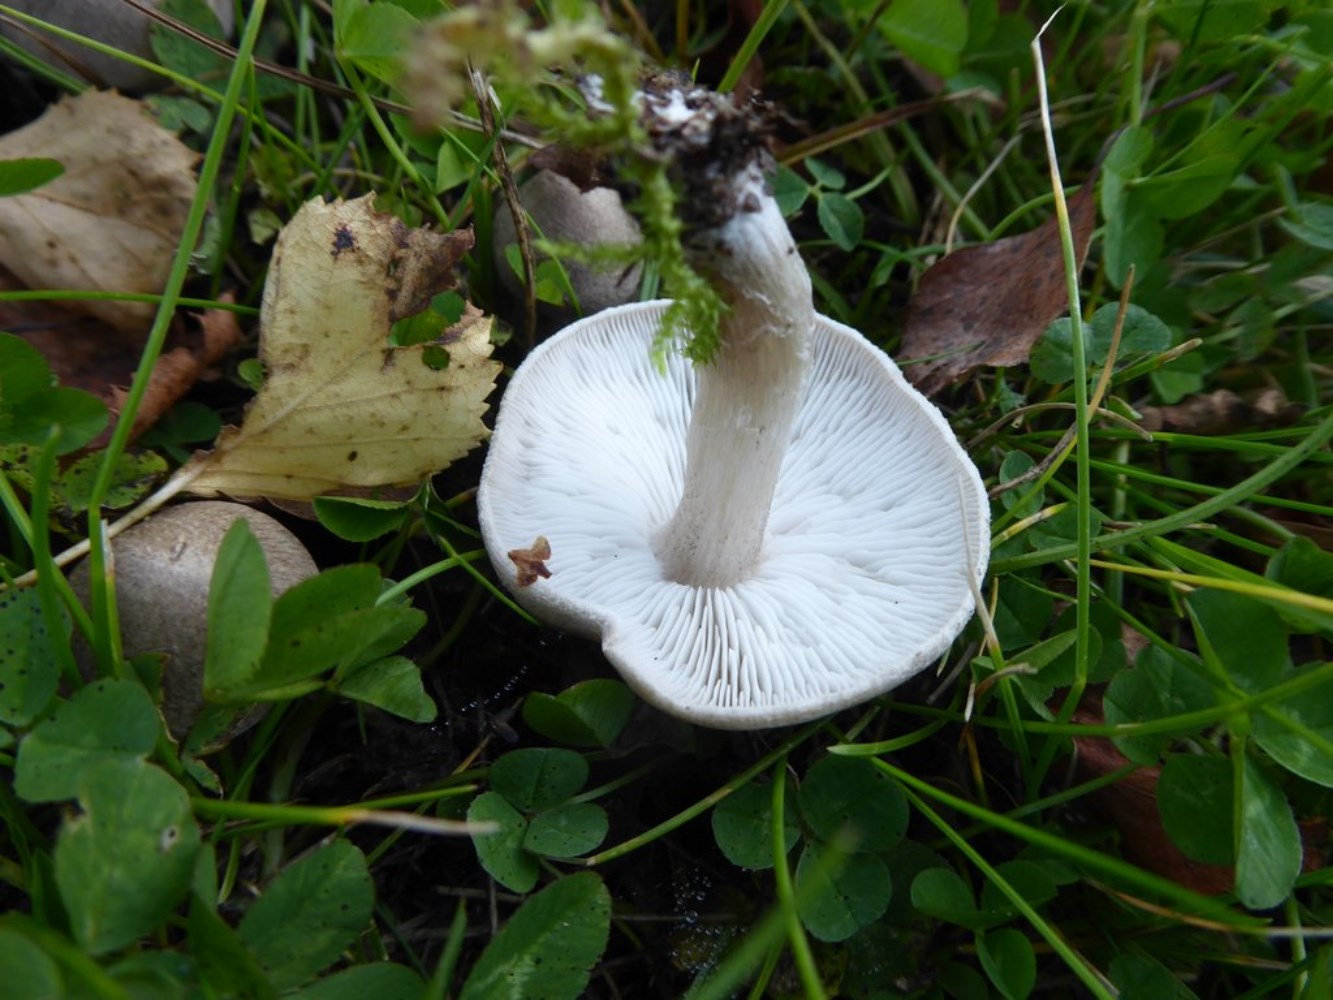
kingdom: Fungi
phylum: Basidiomycota
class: Agaricomycetes
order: Agaricales
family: Tricholomataceae
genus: Tricholoma
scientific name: Tricholoma scalpturatum
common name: gulplettet ridderhat
